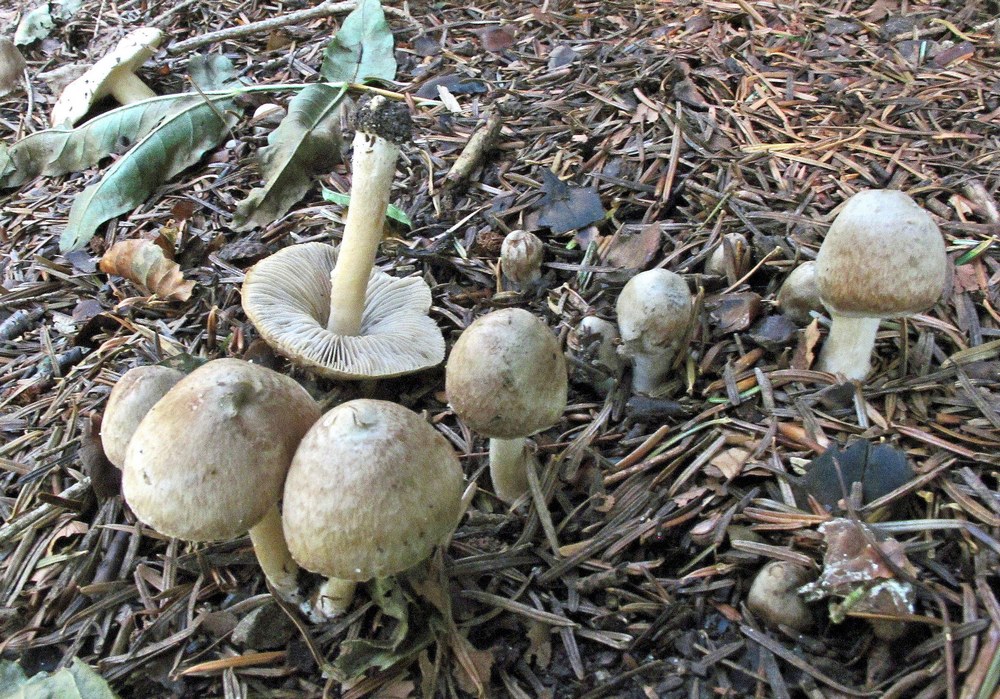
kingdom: Fungi
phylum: Basidiomycota
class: Agaricomycetes
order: Agaricales
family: Inocybaceae
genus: Inocybe
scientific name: Inocybe sindonia
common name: bleg trævlhat
